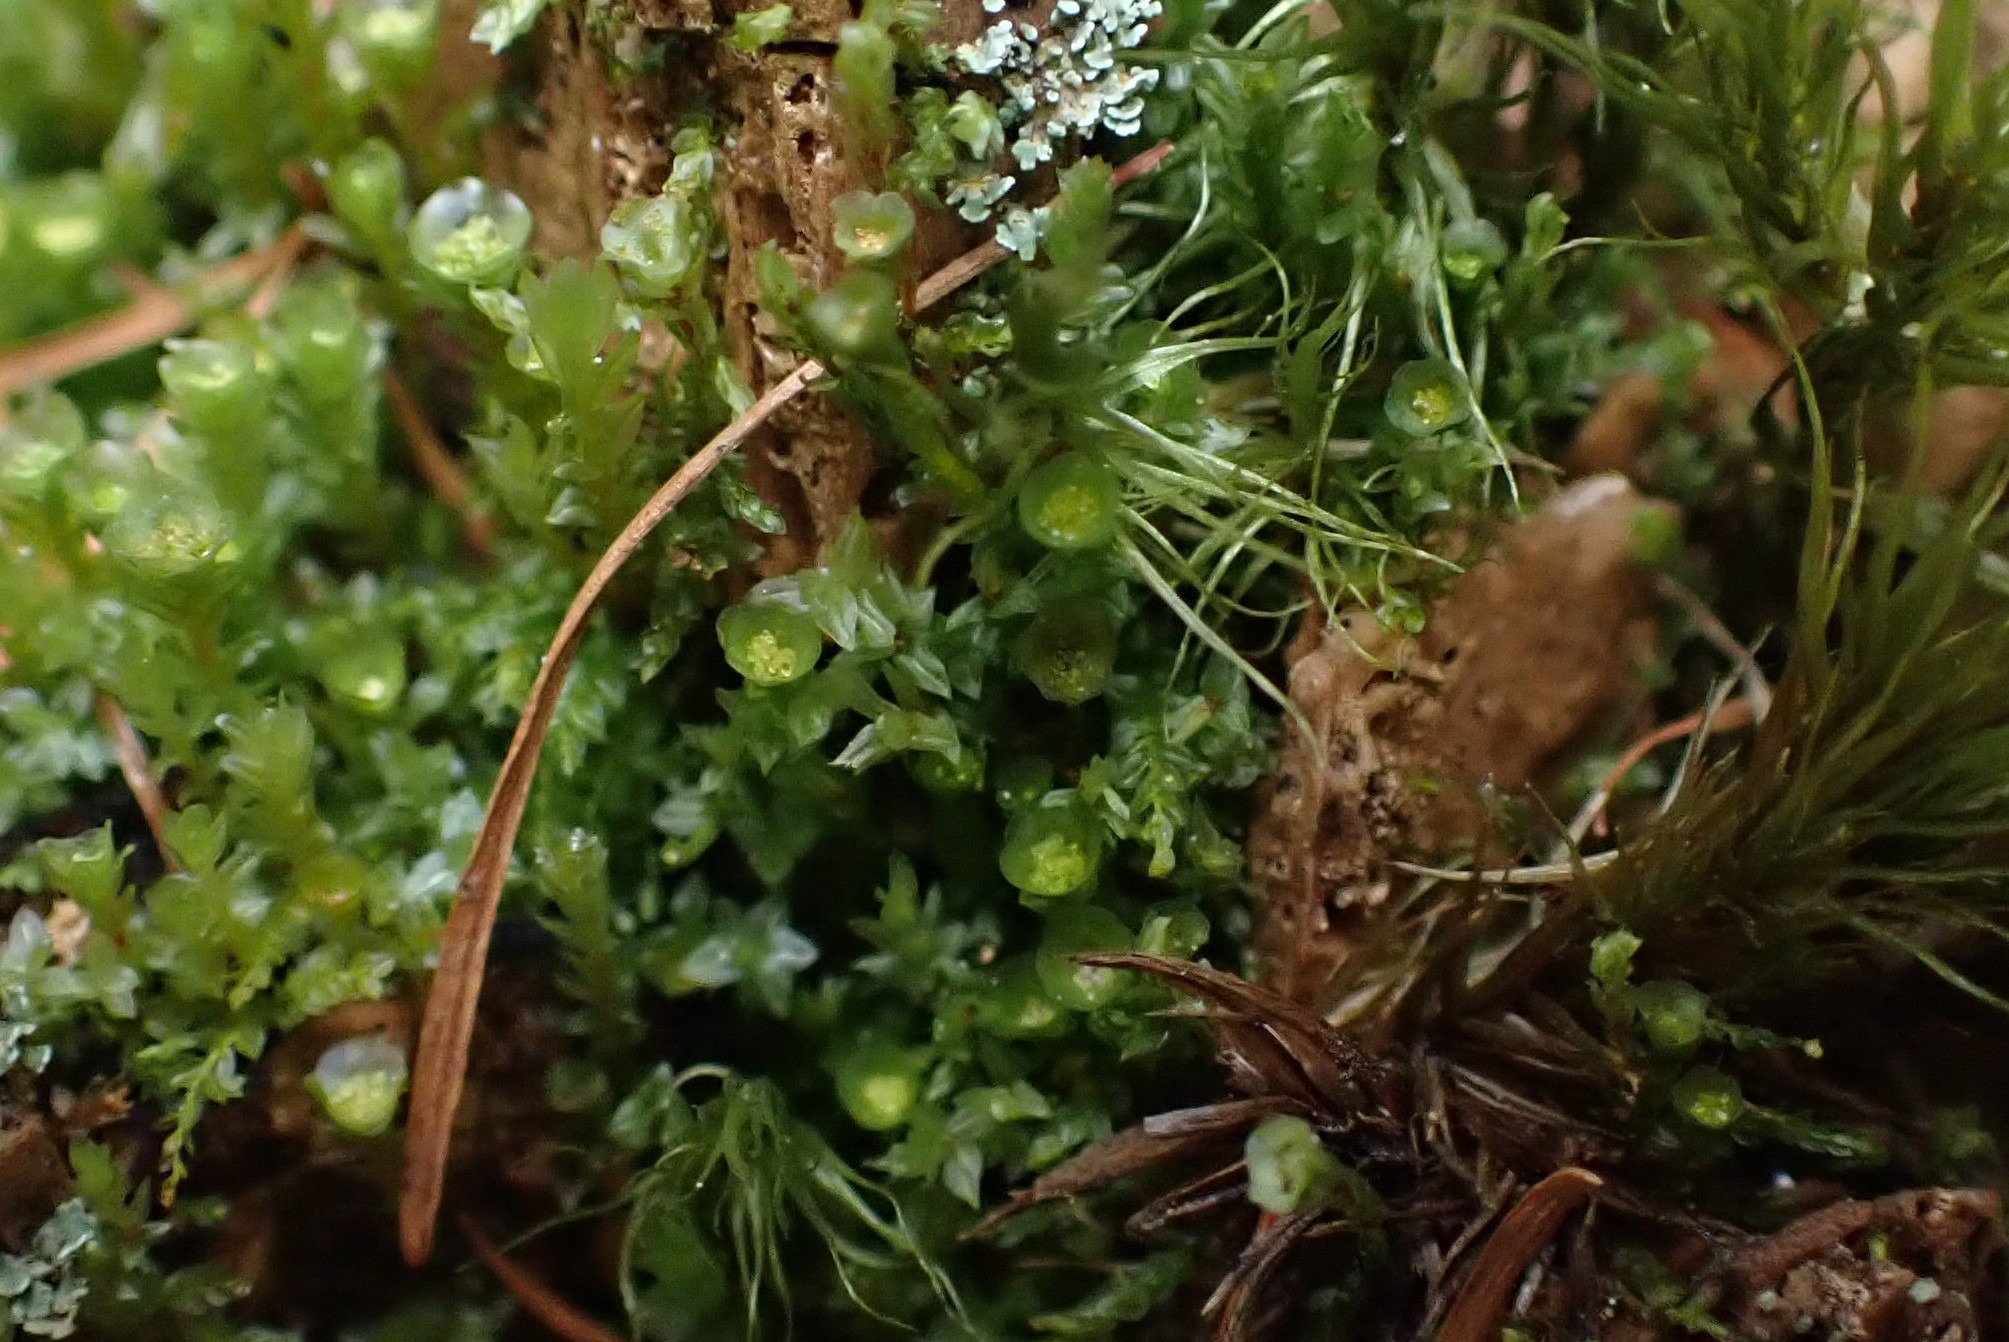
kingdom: Plantae
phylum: Bryophyta
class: Polytrichopsida
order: Tetraphidales
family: Tetraphidaceae
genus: Tetraphis
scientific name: Tetraphis pellucida
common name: Almindelig firtand
